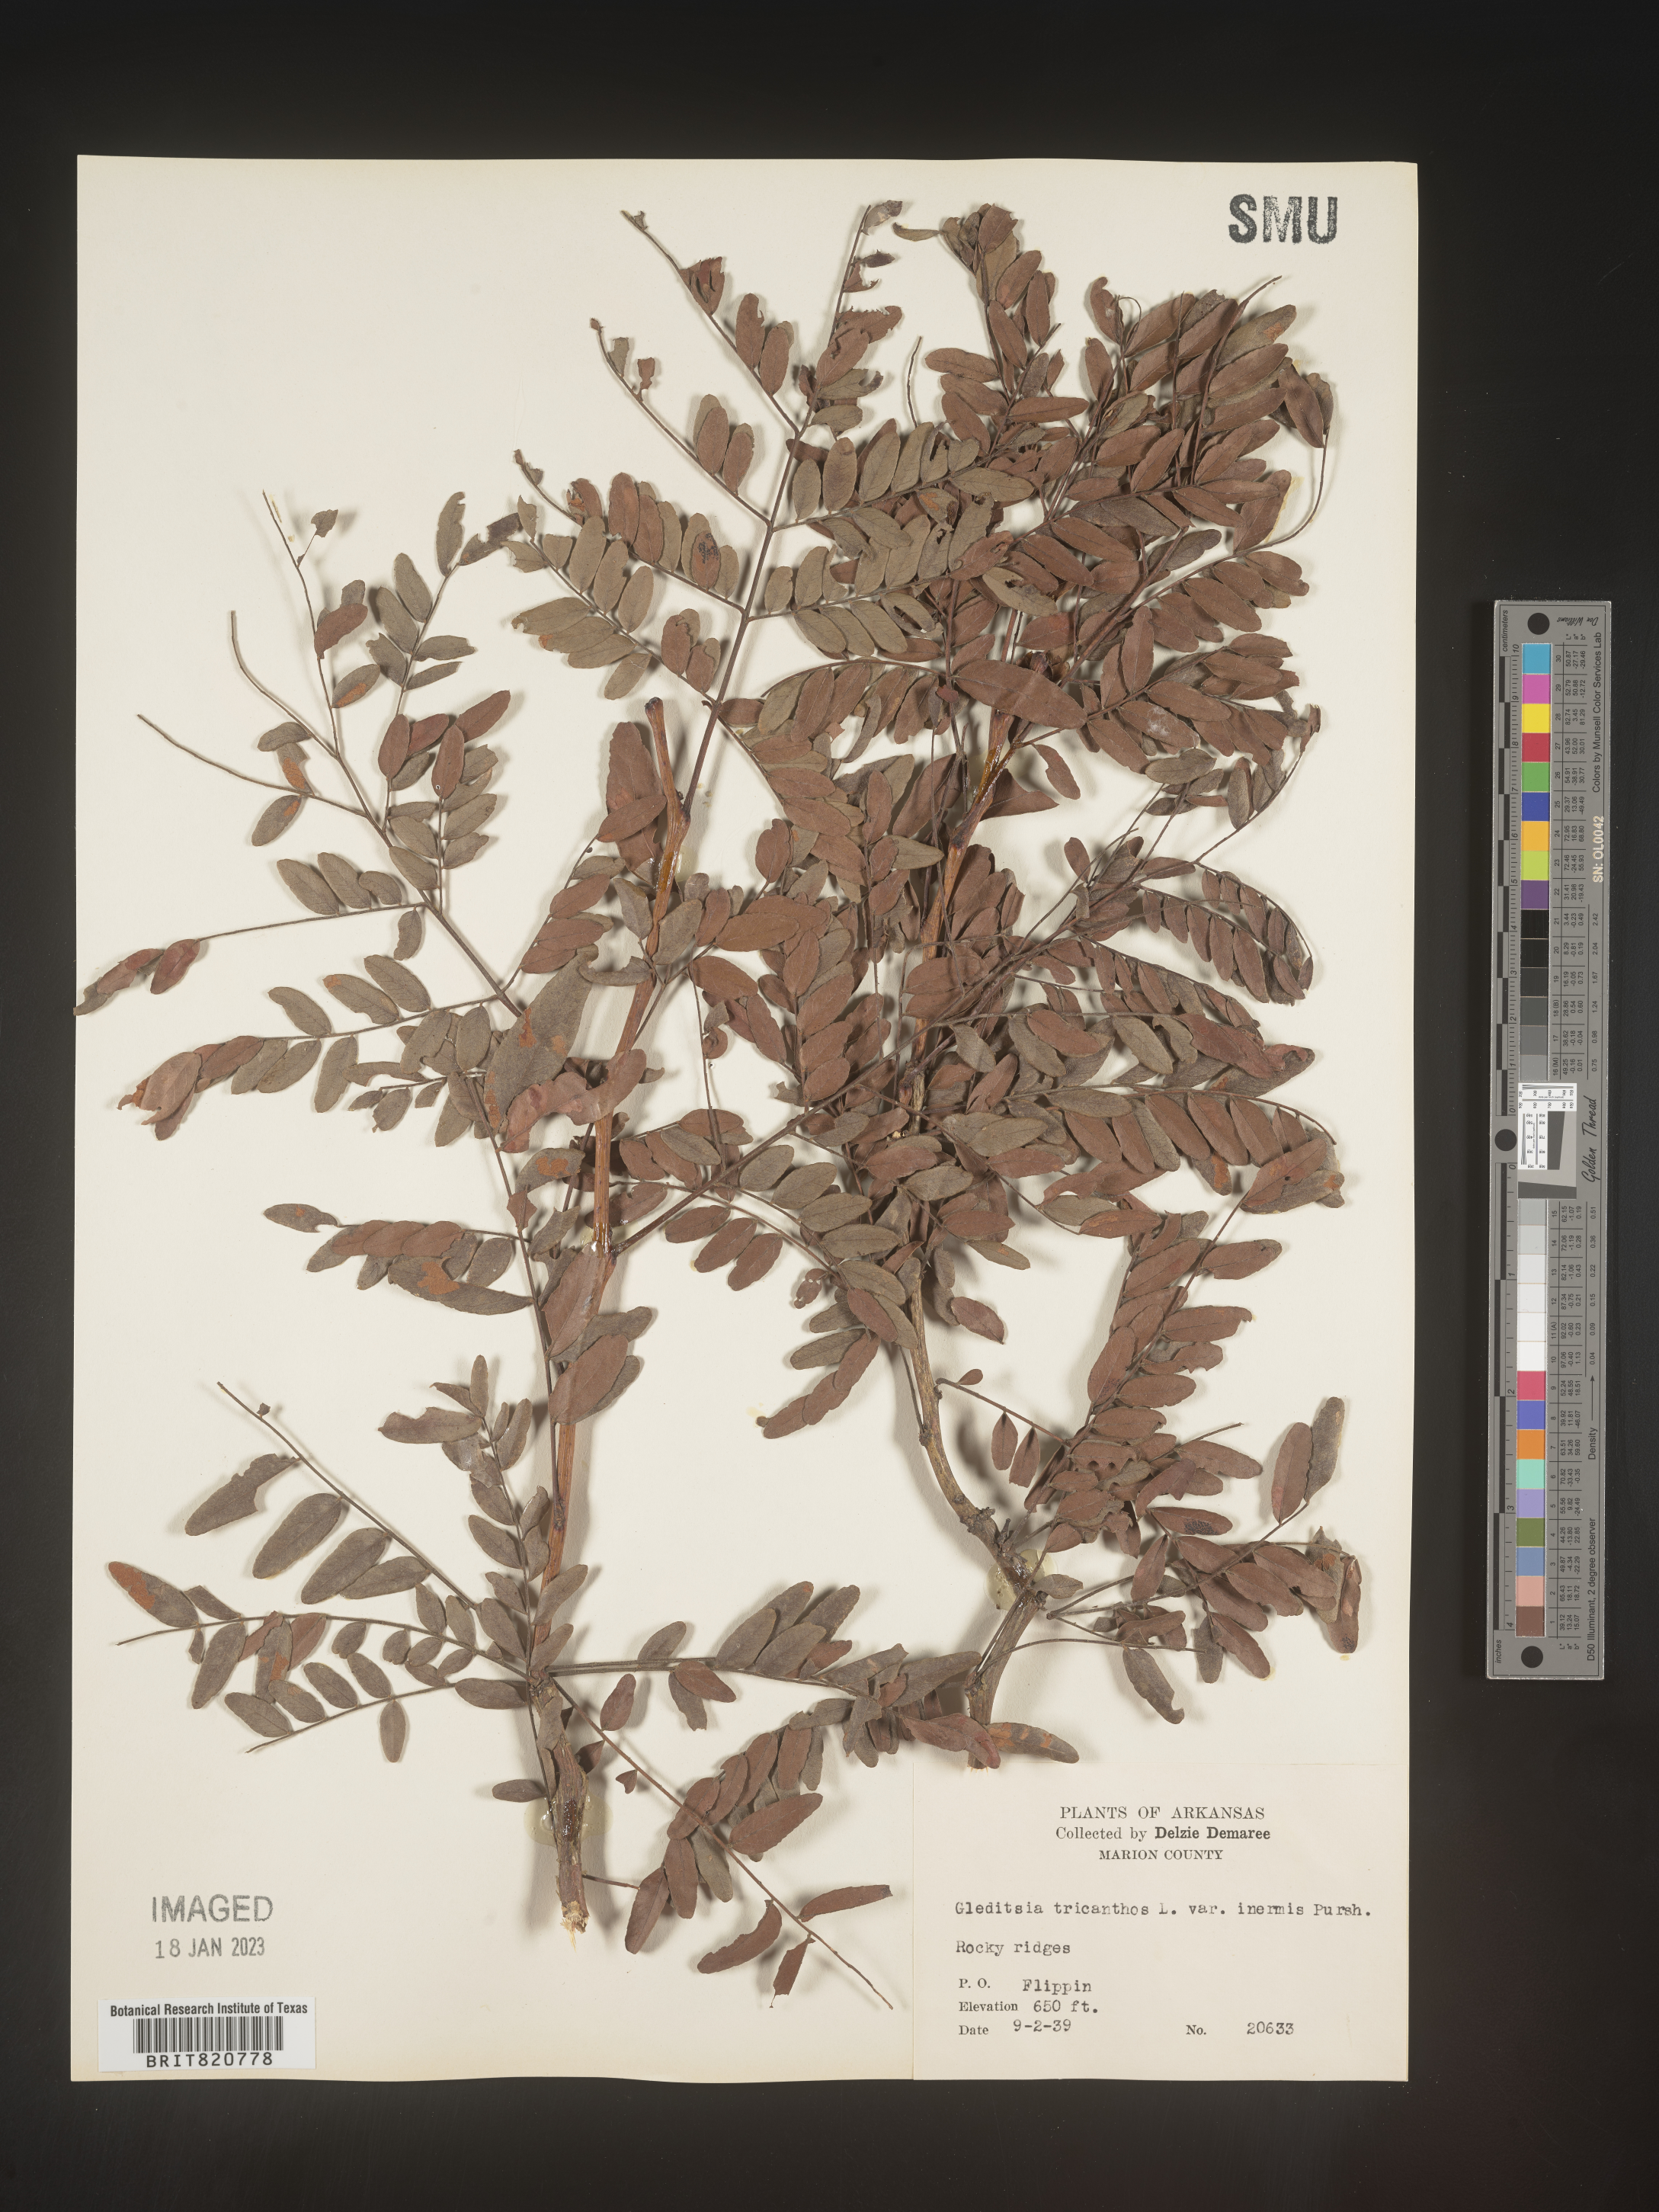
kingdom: Plantae
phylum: Tracheophyta
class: Magnoliopsida
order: Fabales
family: Fabaceae
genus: Gleditsia
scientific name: Gleditsia triacanthos
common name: Common honeylocust
